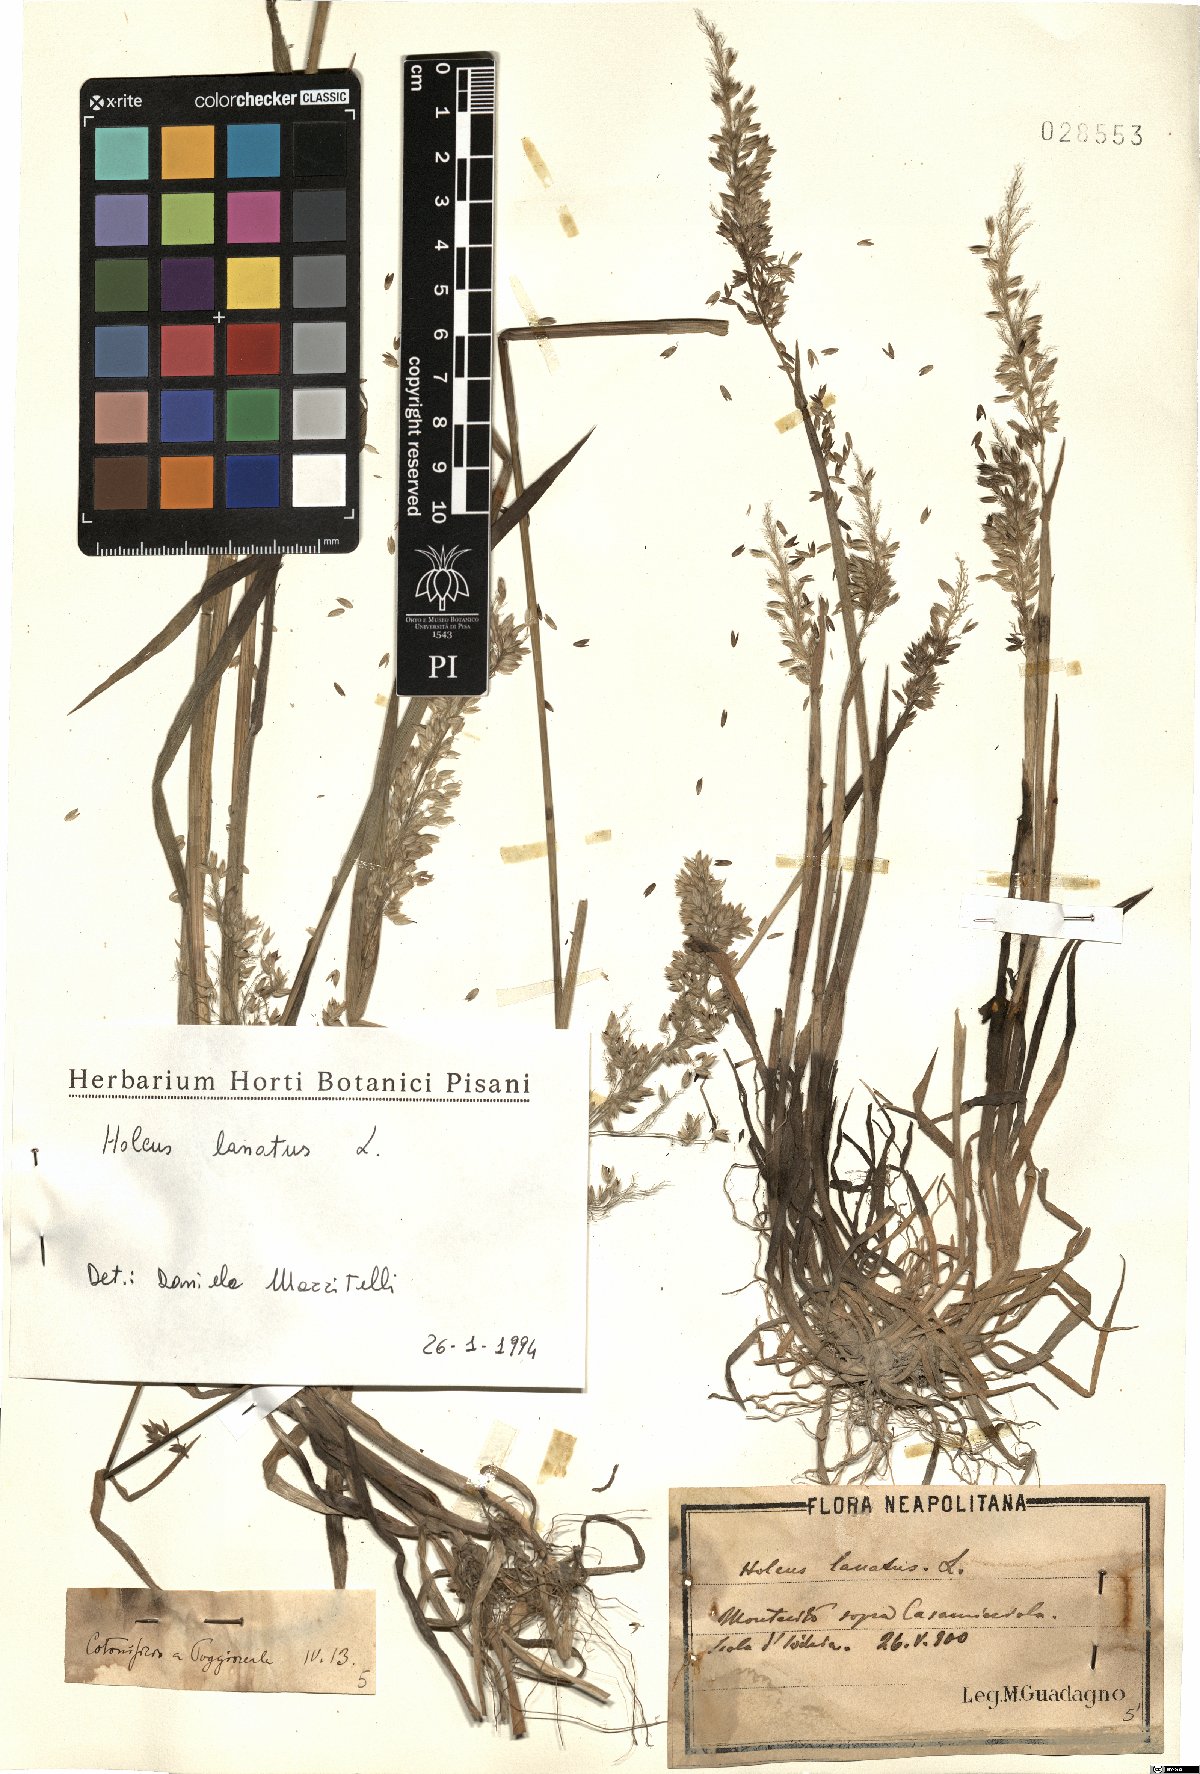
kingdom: Plantae
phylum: Tracheophyta
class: Liliopsida
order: Poales
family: Poaceae
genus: Holcus
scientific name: Holcus lanatus
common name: Yorkshire-fog
